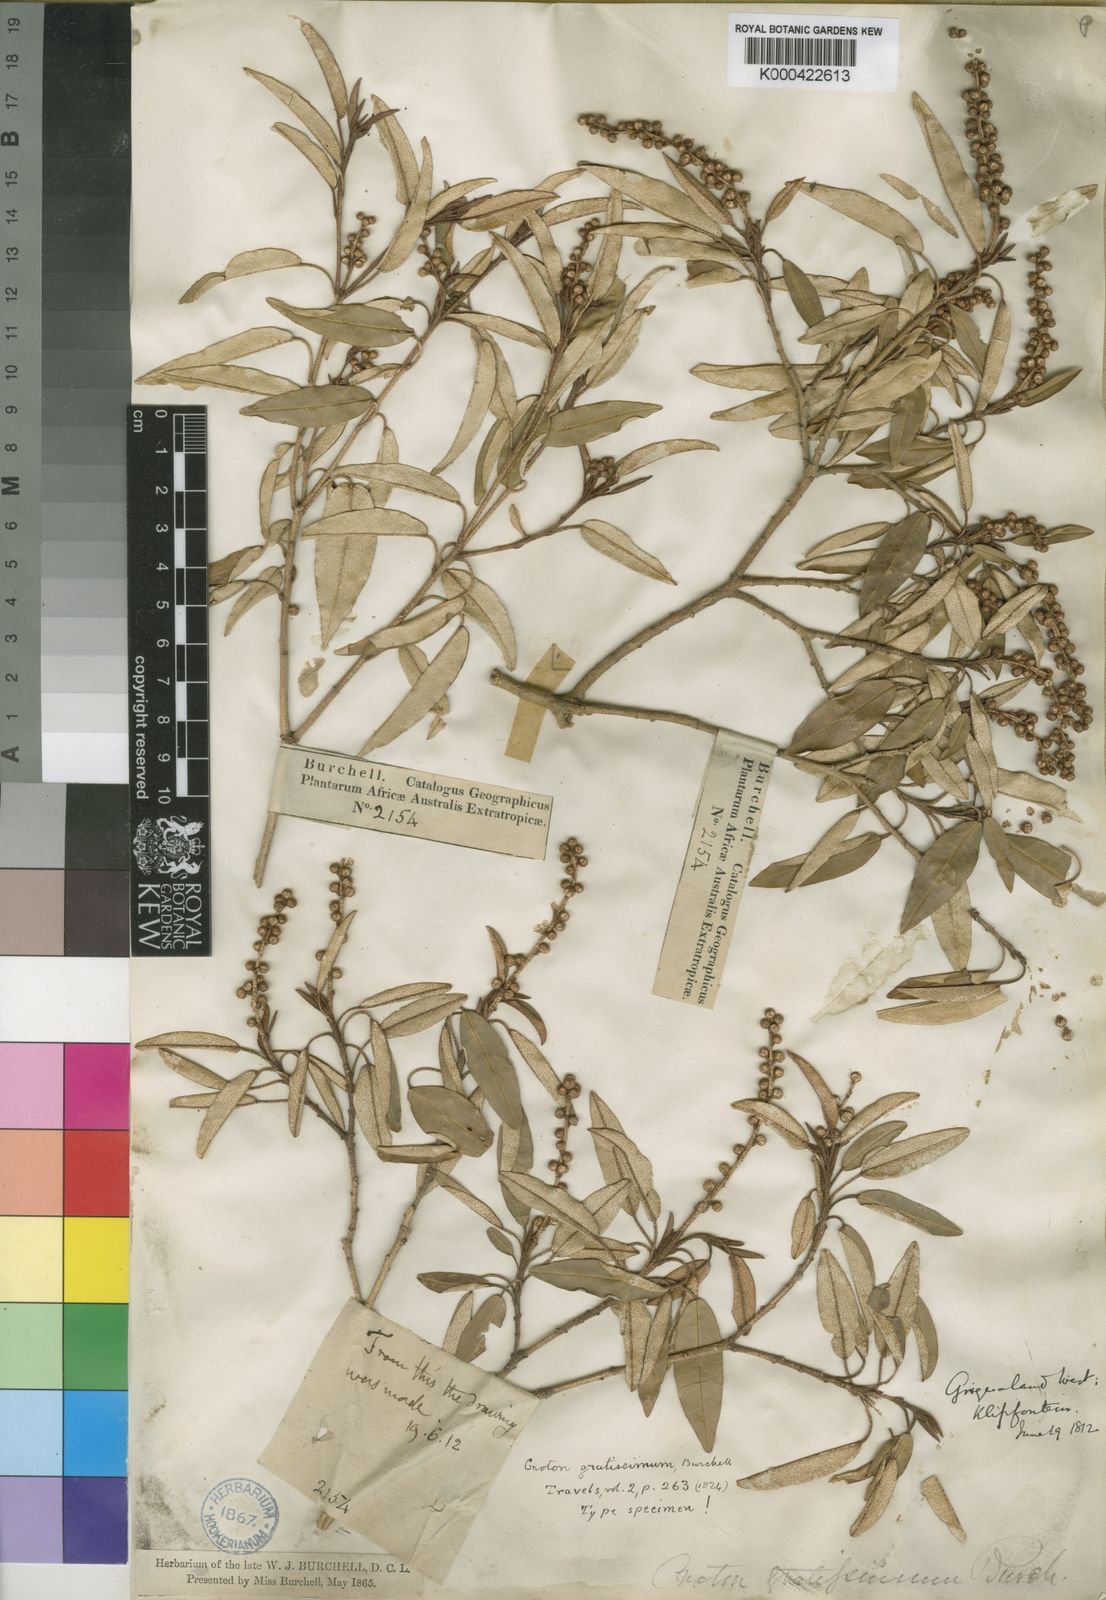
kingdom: Plantae
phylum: Tracheophyta
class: Magnoliopsida
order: Malpighiales
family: Euphorbiaceae
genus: Croton
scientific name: Croton gratissimus
